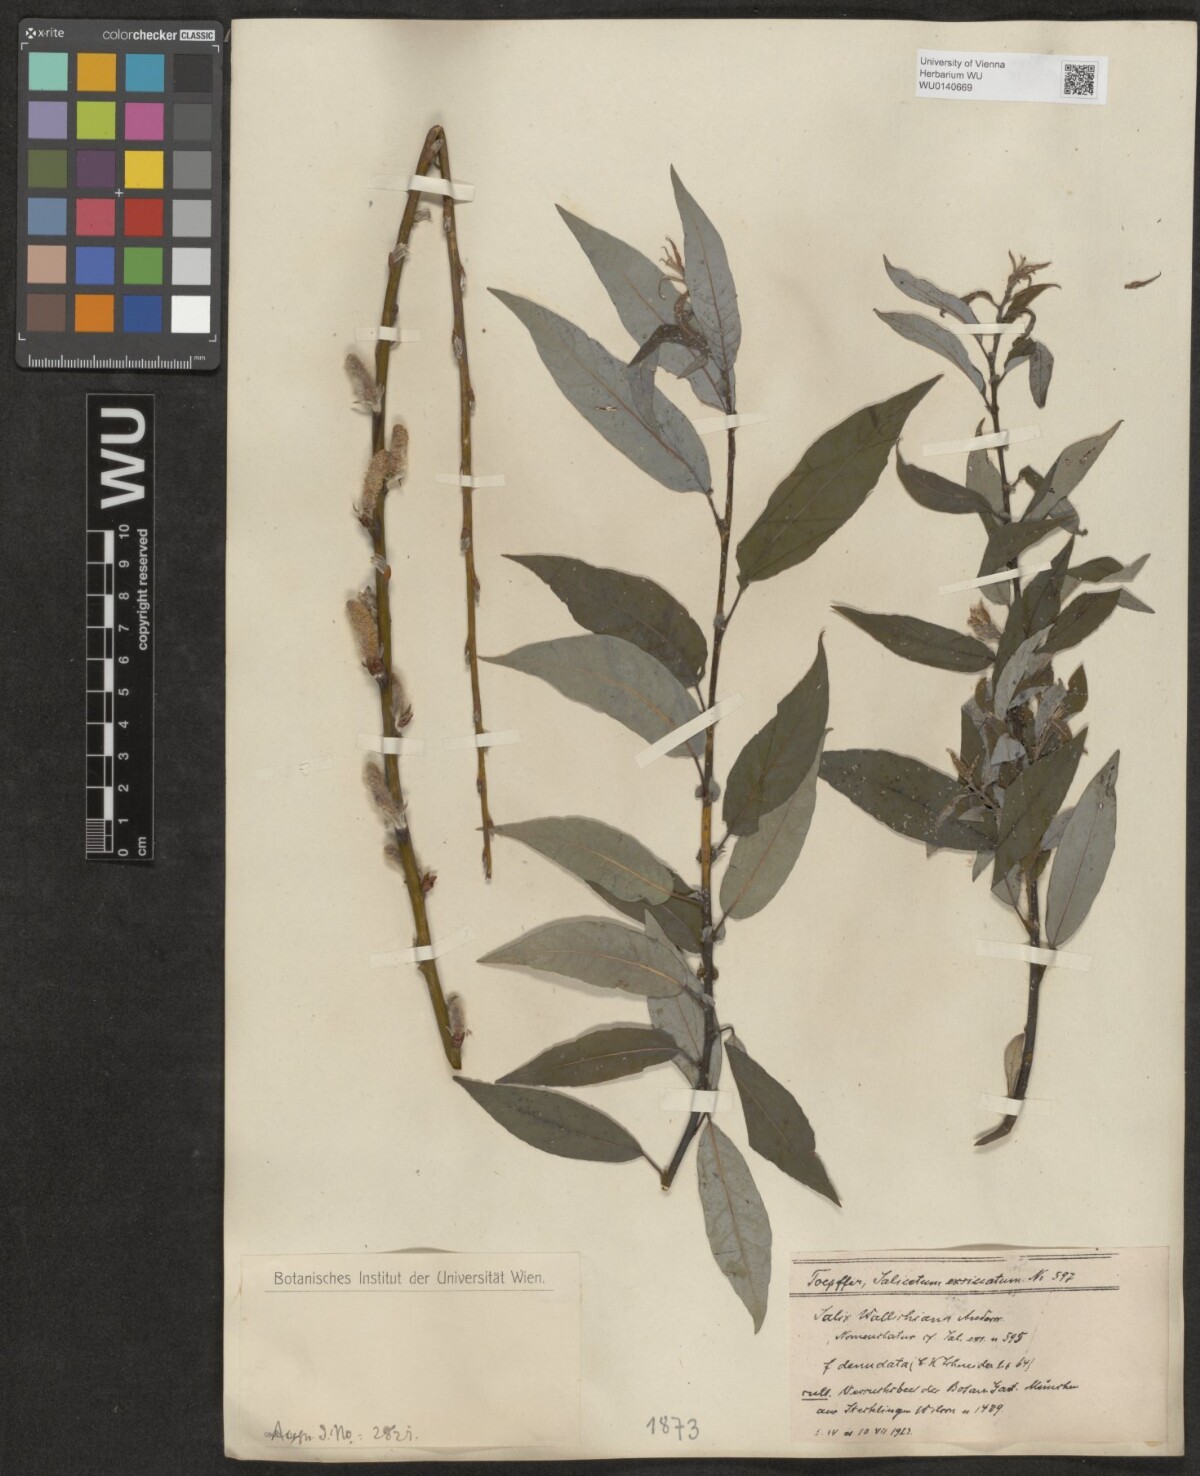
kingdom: Plantae
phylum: Tracheophyta
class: Magnoliopsida
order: Malpighiales
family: Salicaceae
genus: Salix
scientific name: Salix disperma
